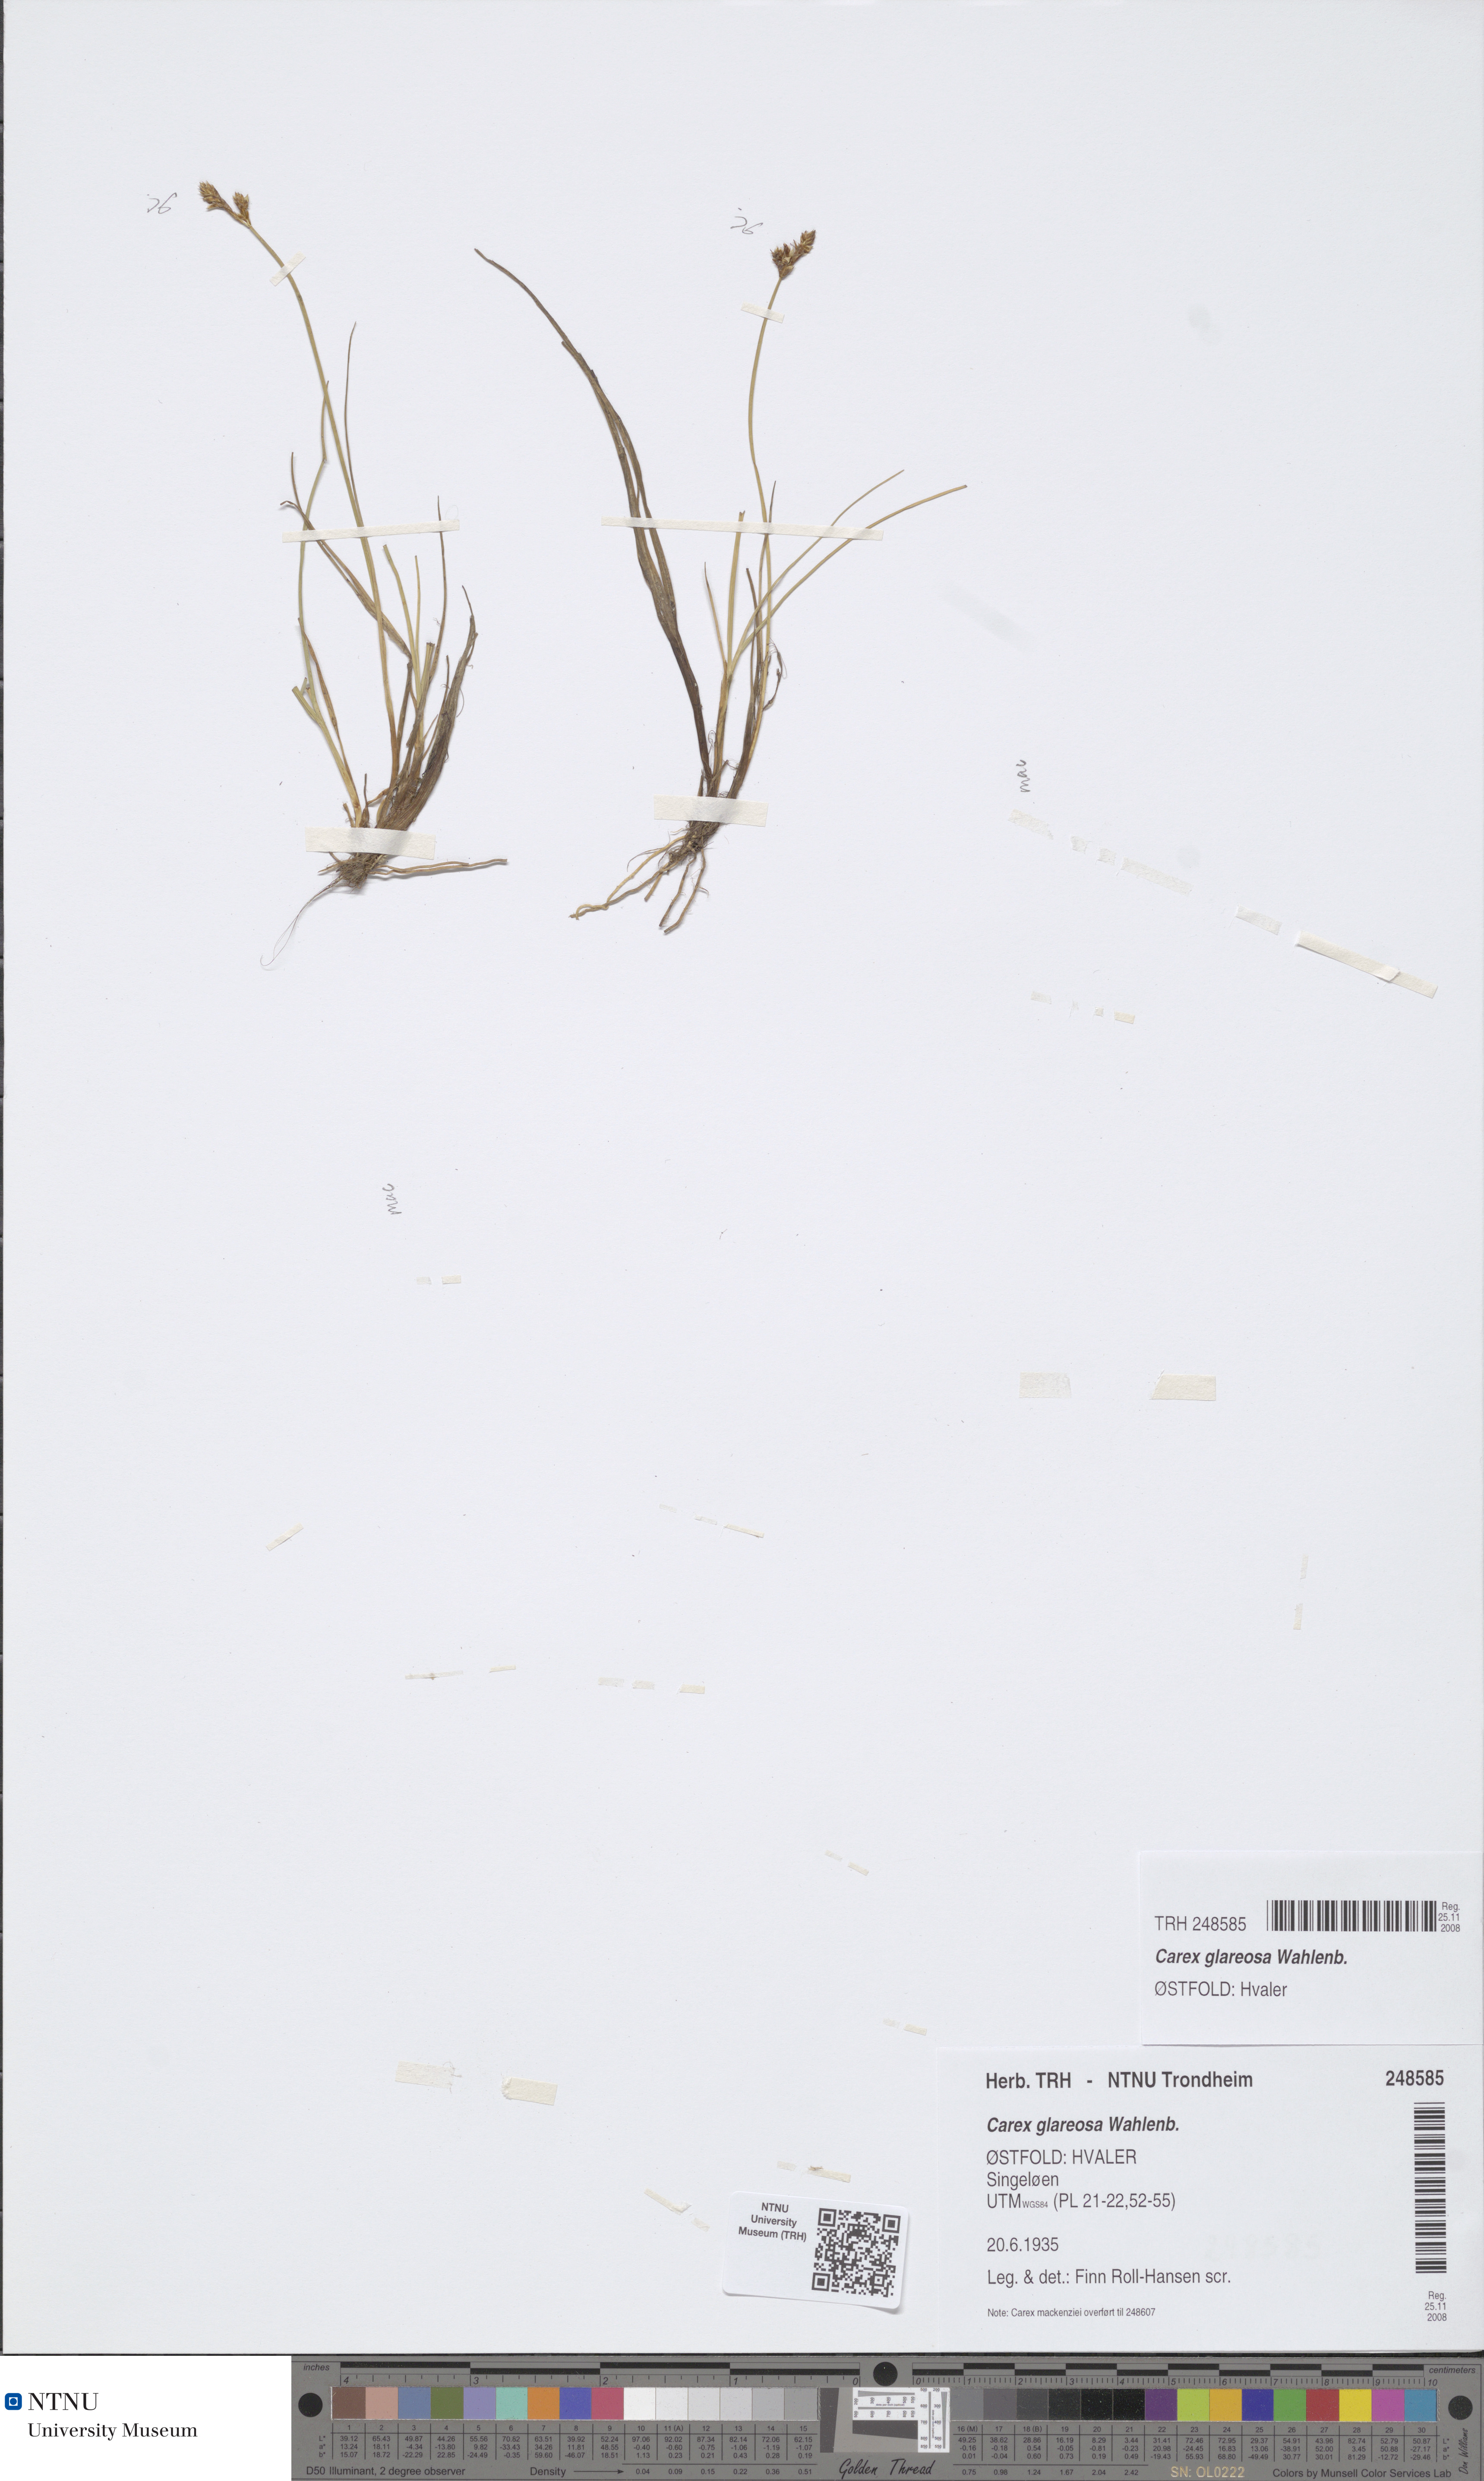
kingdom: Plantae
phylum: Tracheophyta
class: Liliopsida
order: Poales
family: Cyperaceae
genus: Carex
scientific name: Carex glareosa
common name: Clustered sedge
